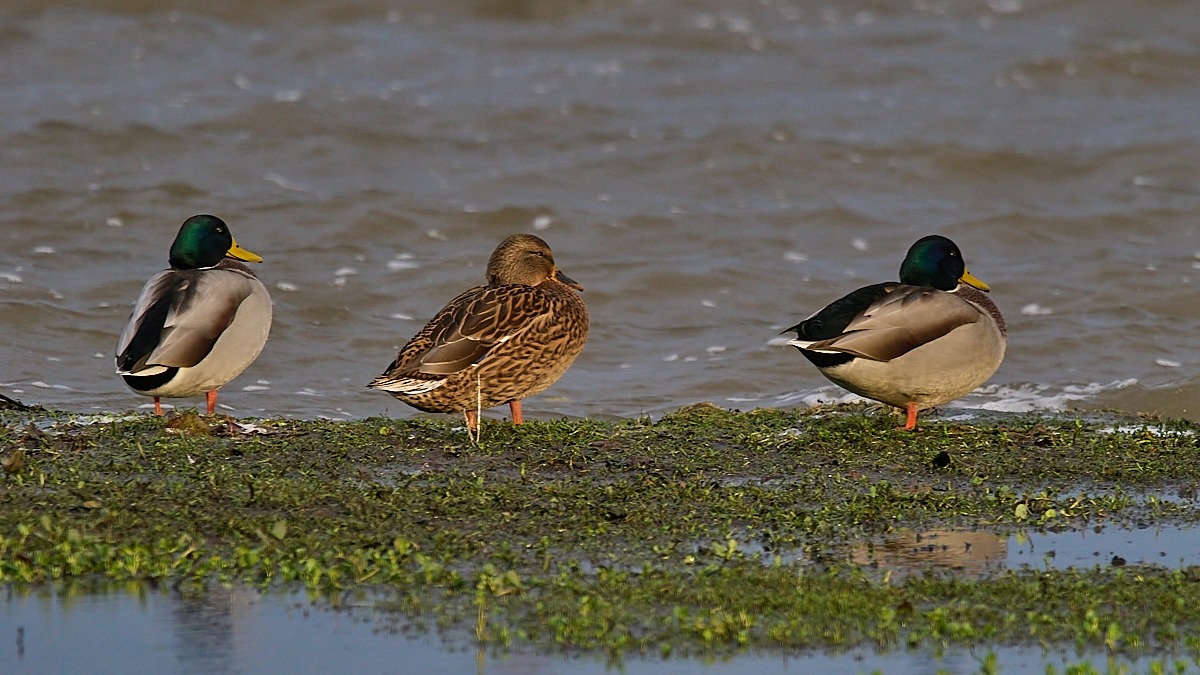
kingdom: Animalia
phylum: Chordata
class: Aves
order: Anseriformes
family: Anatidae
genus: Anas
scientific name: Anas platyrhynchos
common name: Gråand
